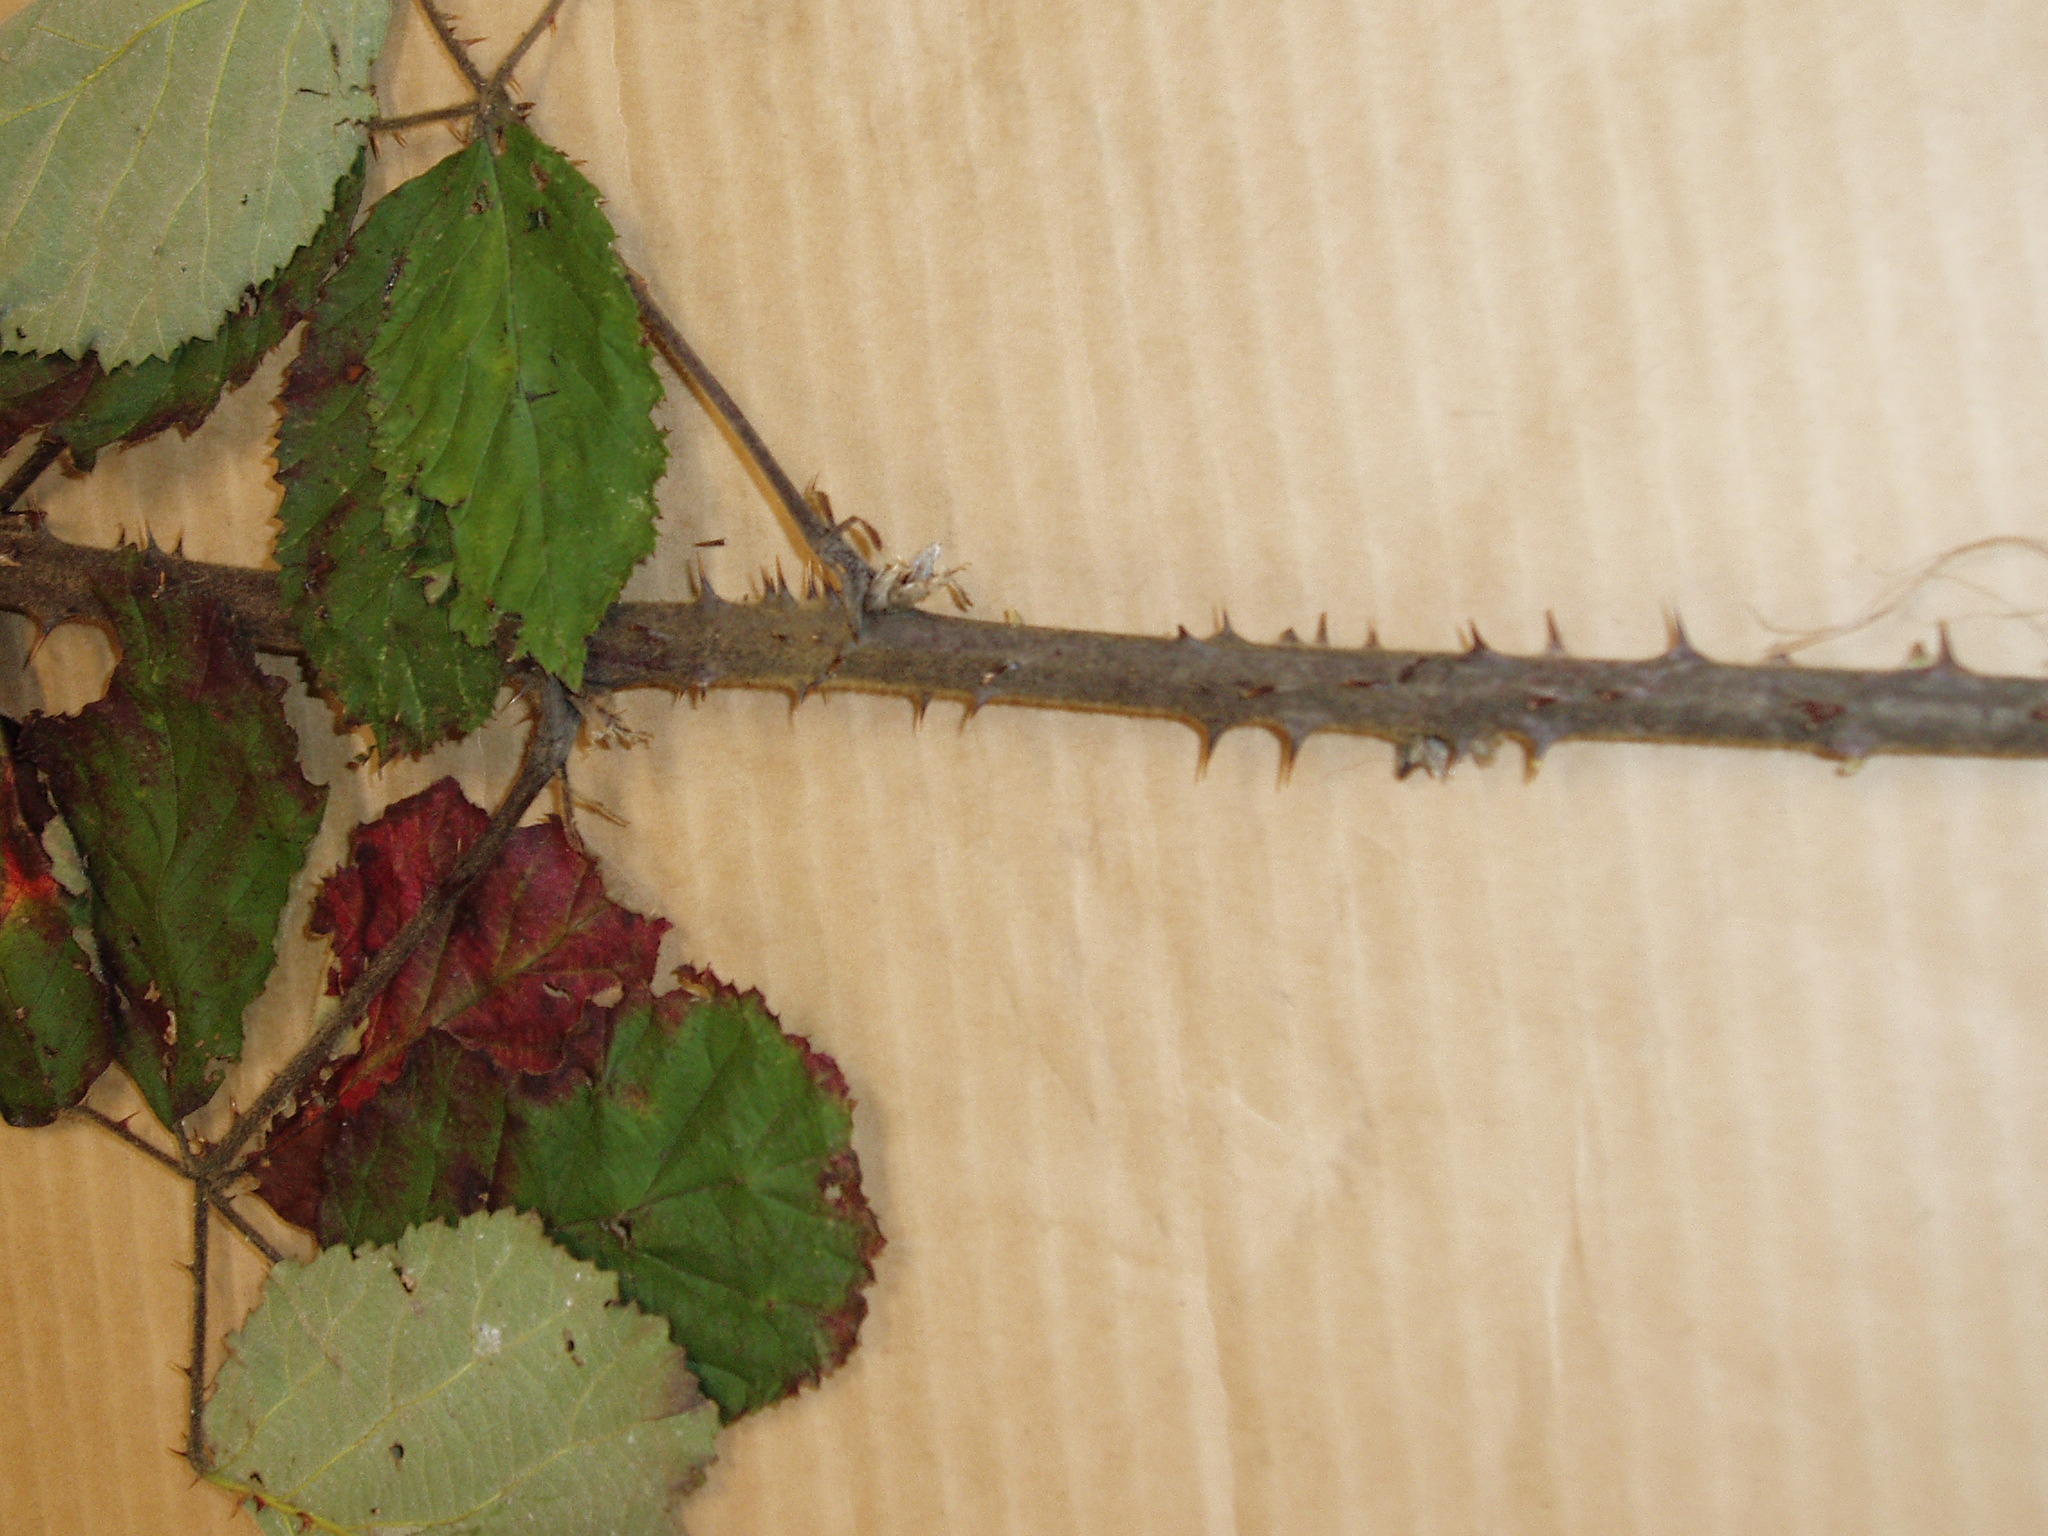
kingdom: Plantae
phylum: Tracheophyta
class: Magnoliopsida
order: Rosales
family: Rosaceae
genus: Rubus
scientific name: Rubus praecox
